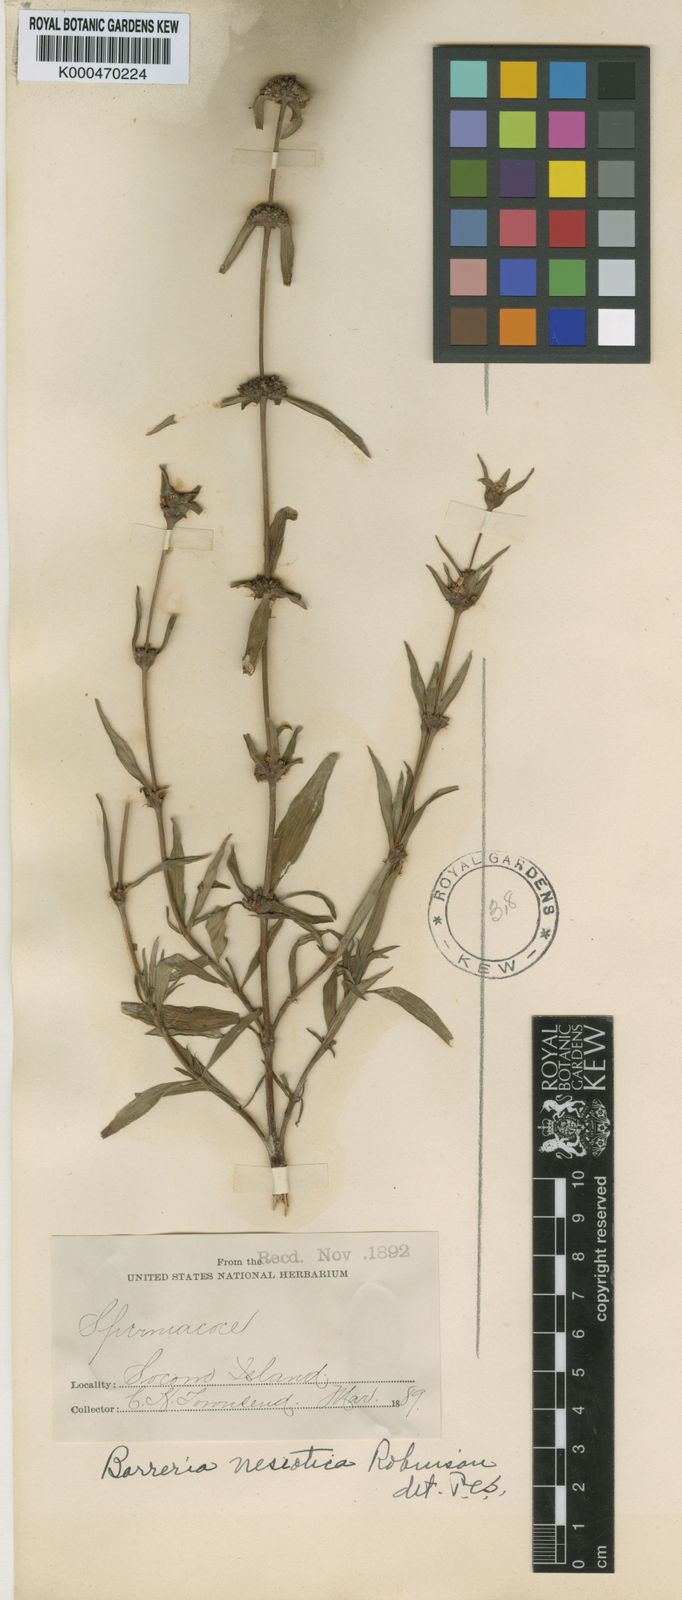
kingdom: Plantae
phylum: Tracheophyta
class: Magnoliopsida
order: Gentianales
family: Rubiaceae
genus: Spermacoce
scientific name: Spermacoce nesiotica
